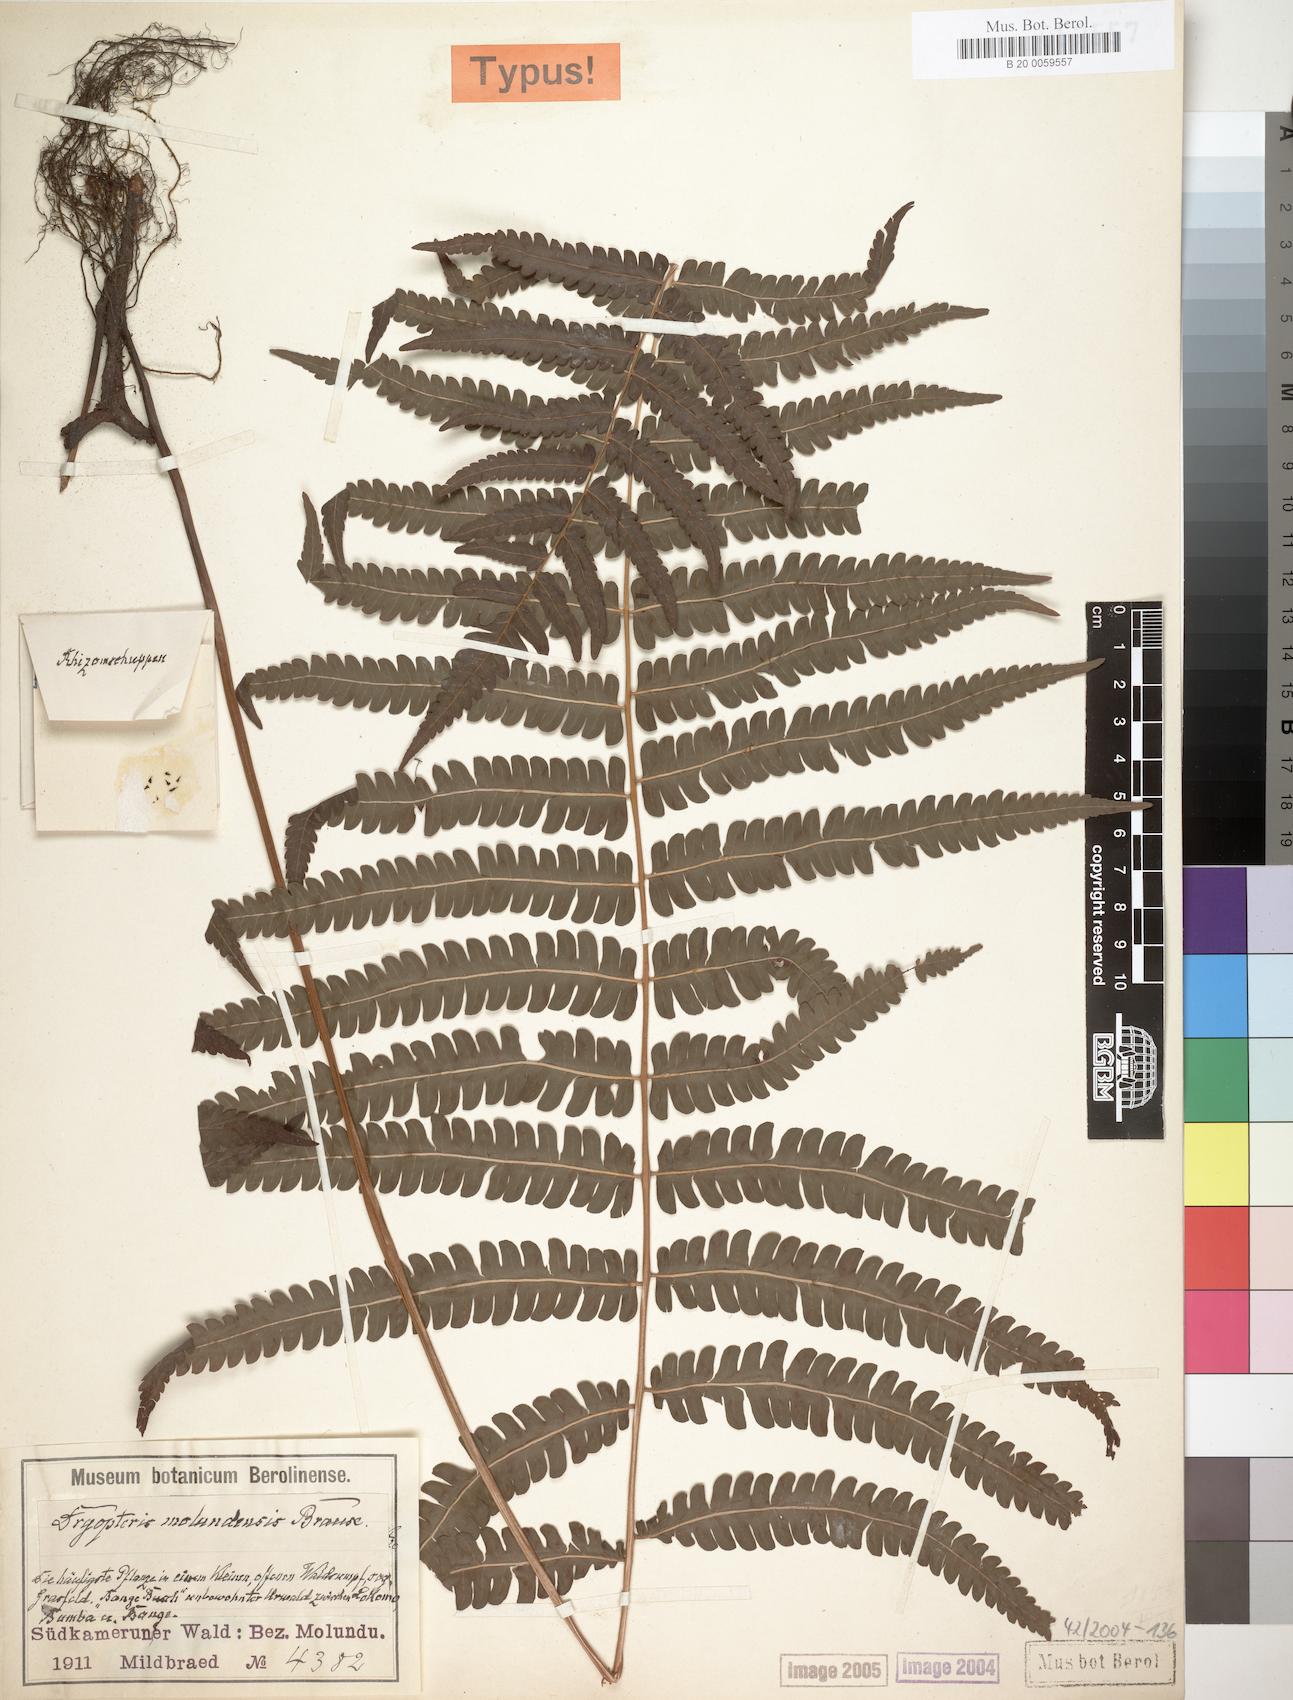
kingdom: Plantae
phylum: Tracheophyta
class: Polypodiopsida
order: Polypodiales
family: Thelypteridaceae
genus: Cyclosorus
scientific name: Cyclosorus striatus
